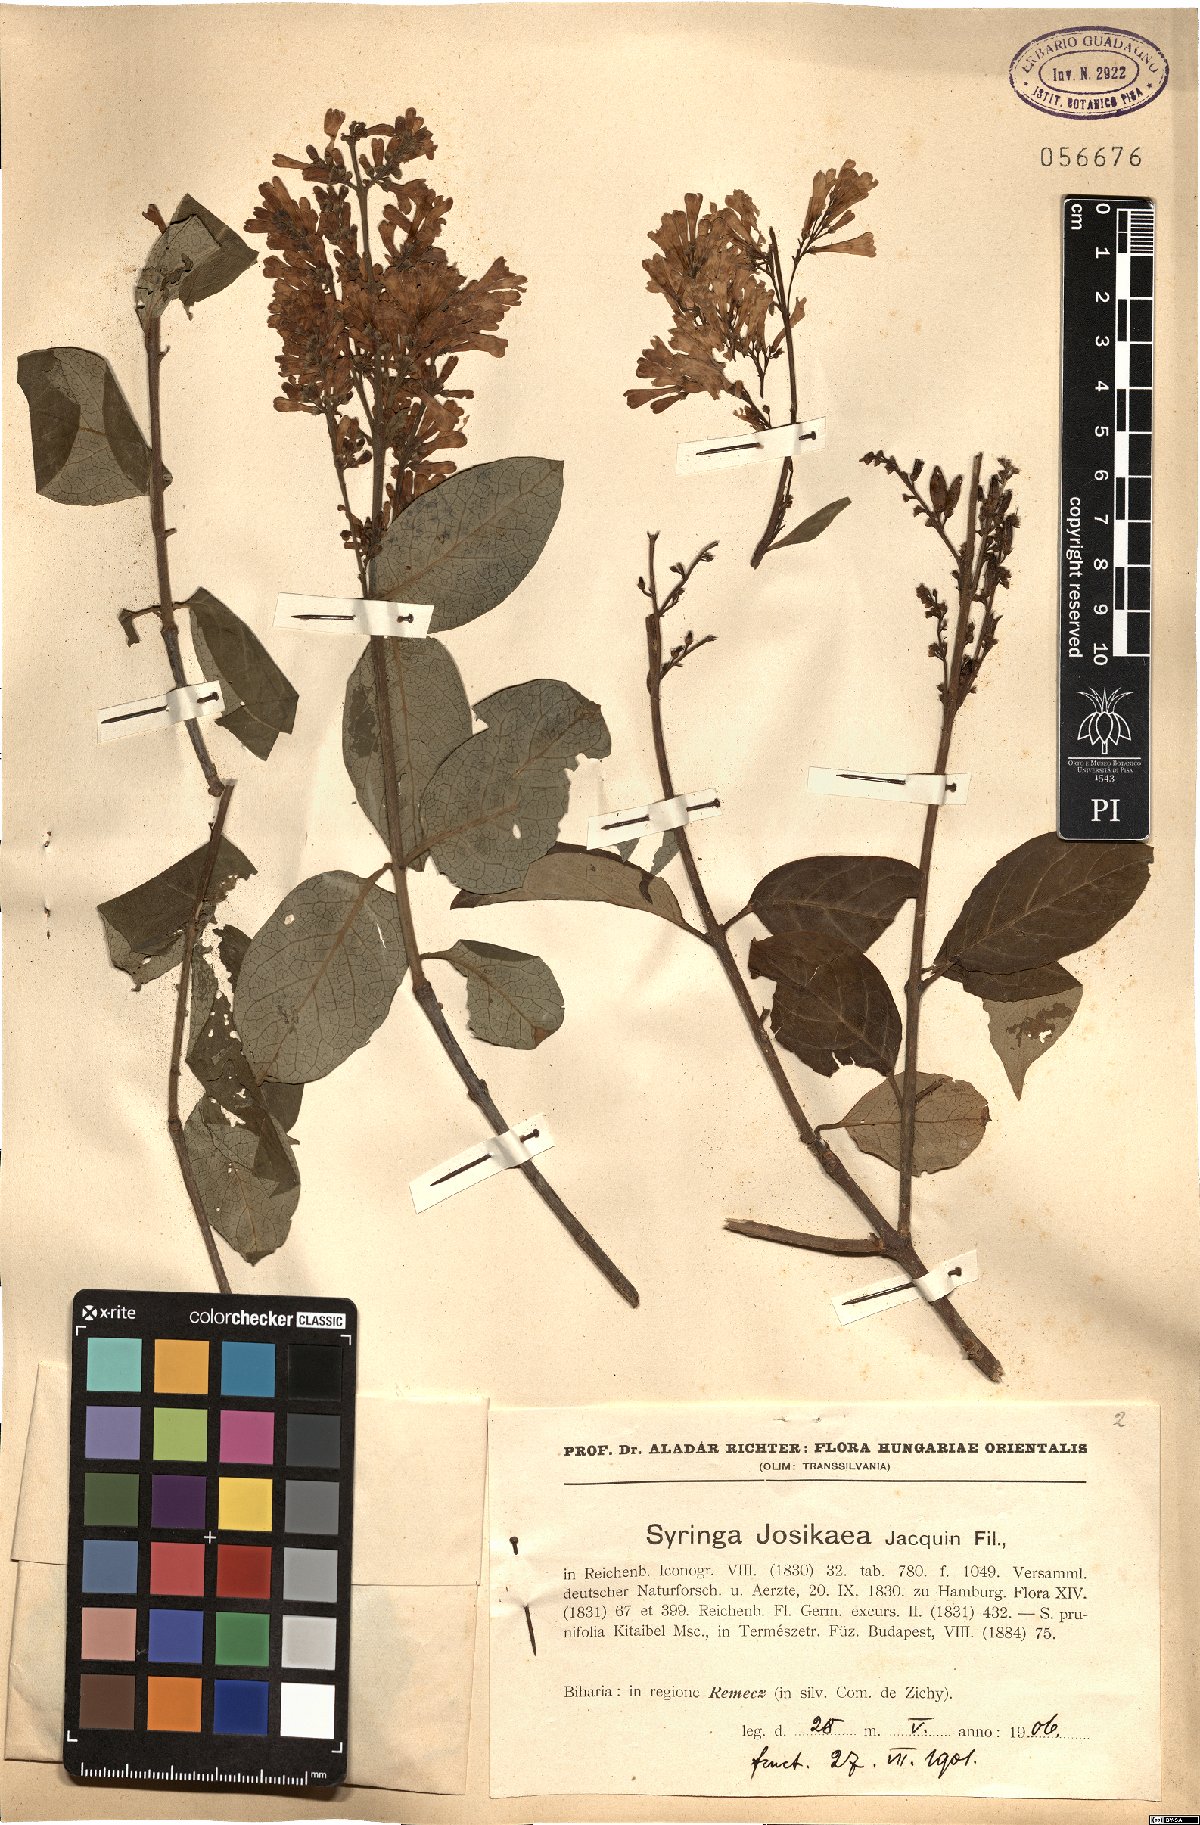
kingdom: Plantae
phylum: Tracheophyta
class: Magnoliopsida
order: Lamiales
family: Oleaceae
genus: Syringa
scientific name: Syringa josikaea
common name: Hungarian lilac
